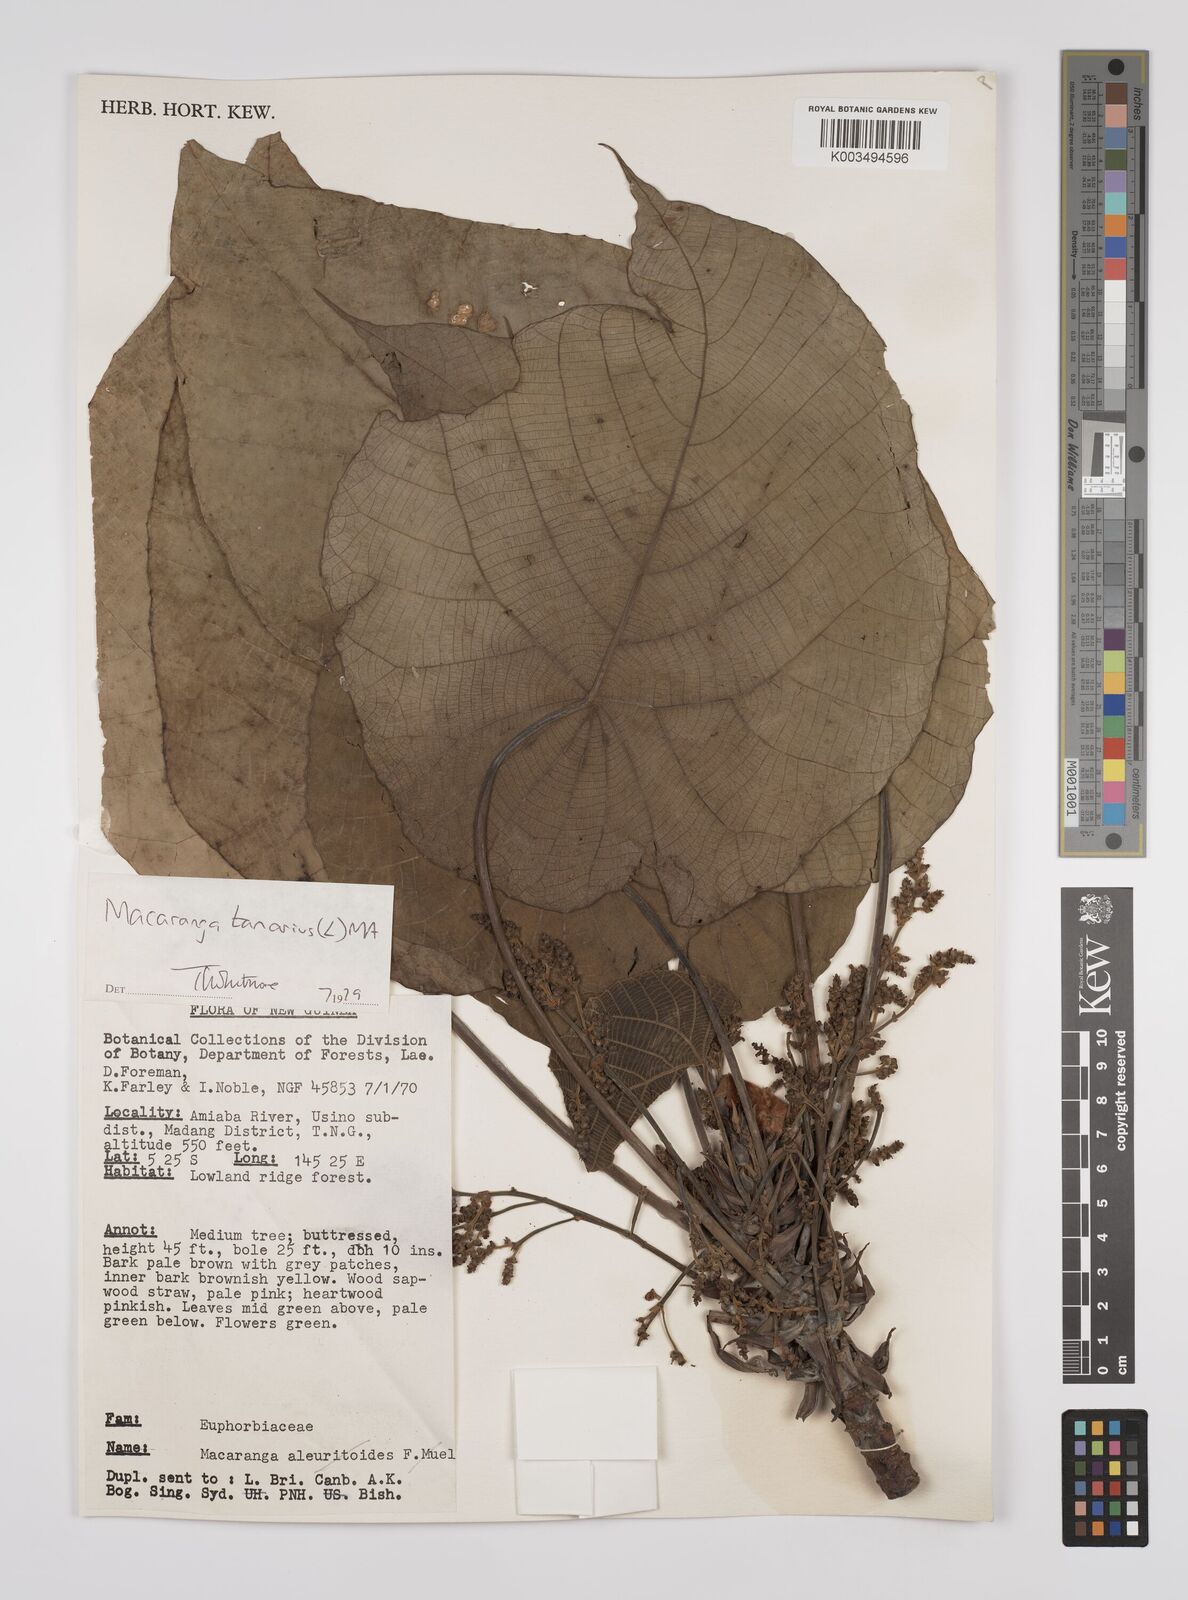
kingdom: Plantae
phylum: Tracheophyta
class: Magnoliopsida
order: Malpighiales
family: Euphorbiaceae
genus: Macaranga
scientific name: Macaranga tanarius
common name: Parasol leaf tree
